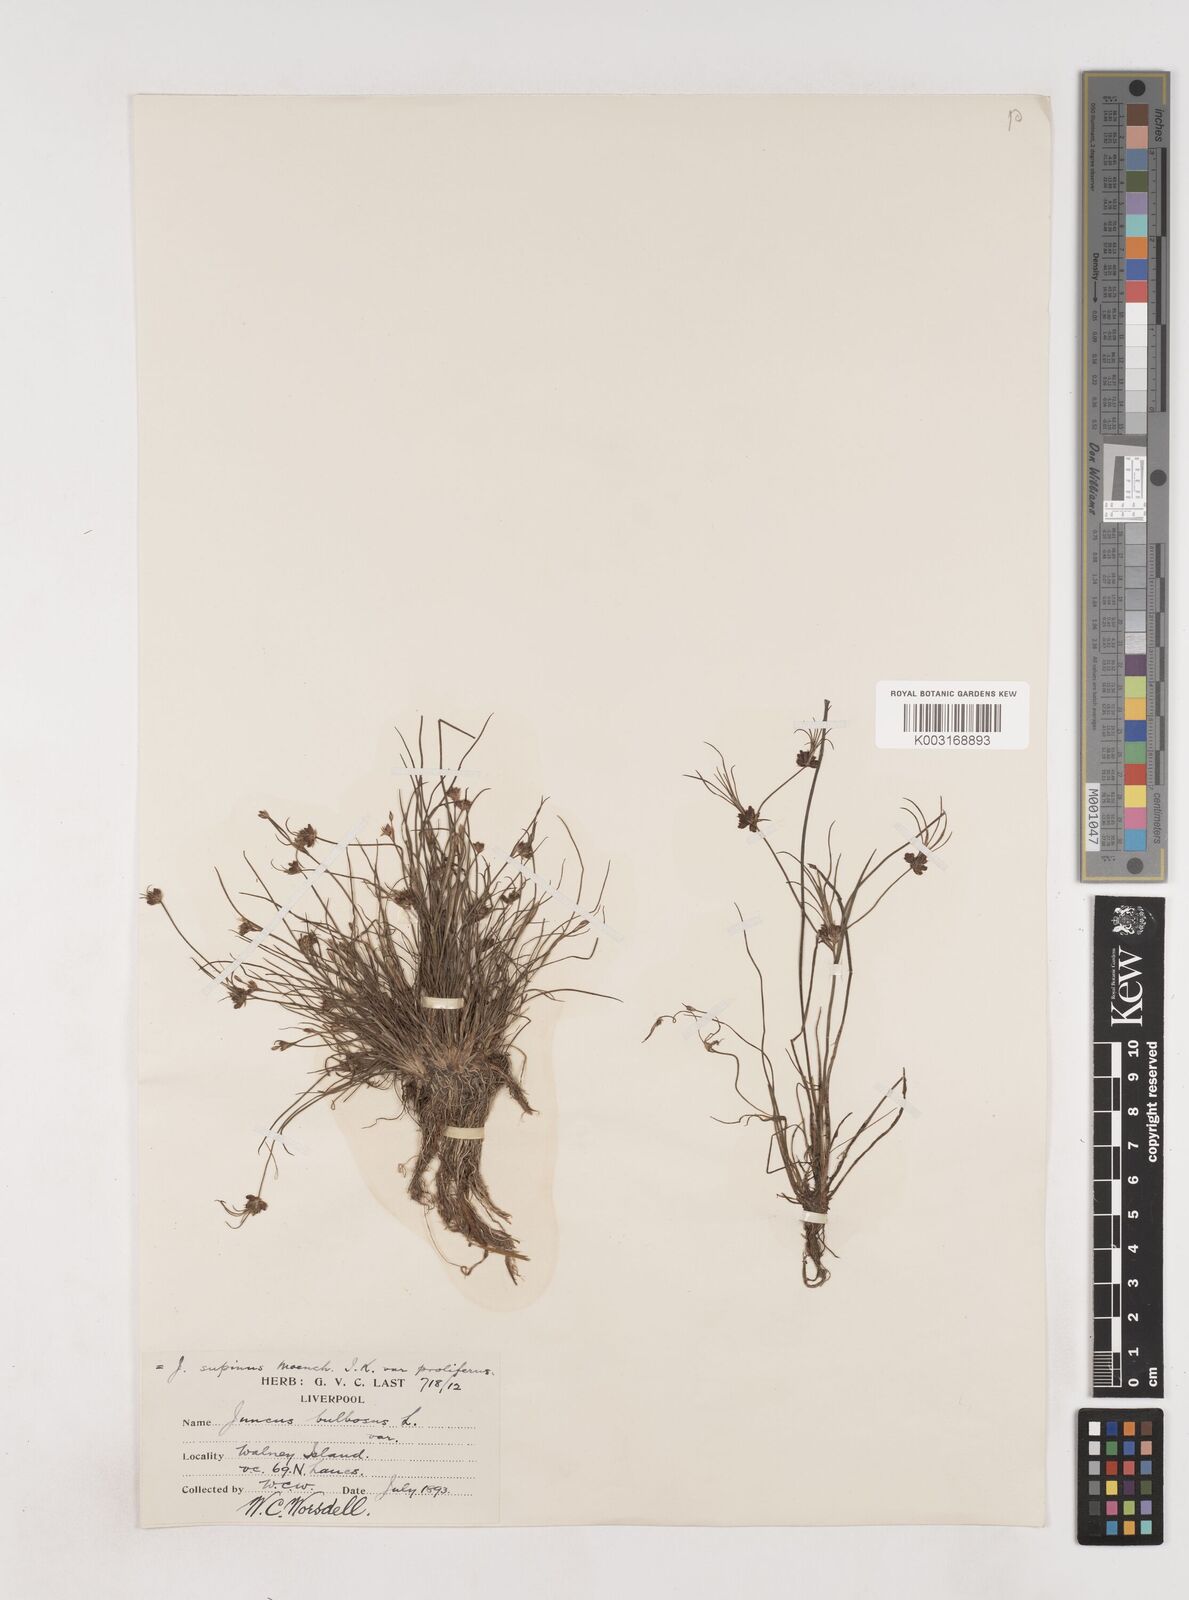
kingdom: Plantae
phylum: Tracheophyta
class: Liliopsida
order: Poales
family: Juncaceae
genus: Juncus
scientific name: Juncus bulbosus
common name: Bulbous rush
